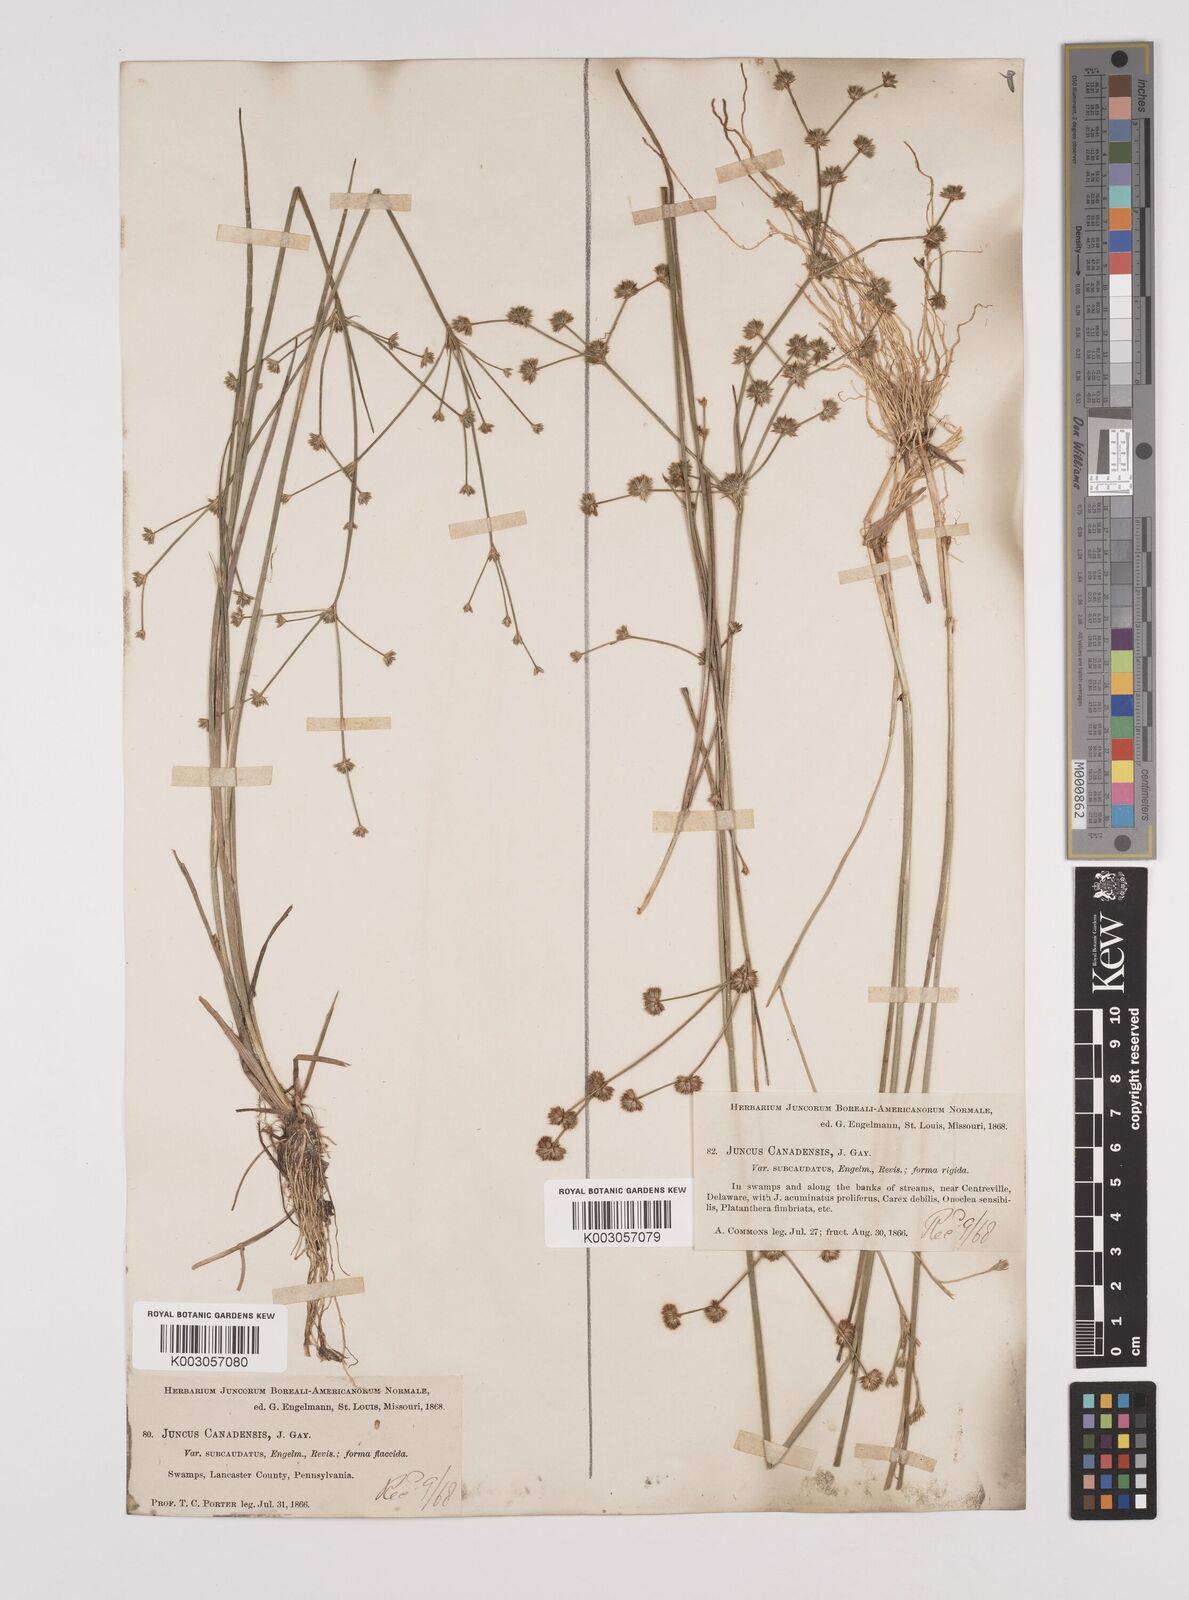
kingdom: Plantae
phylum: Tracheophyta
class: Liliopsida
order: Poales
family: Juncaceae
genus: Juncus
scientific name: Juncus canadensis
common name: Canada rush
